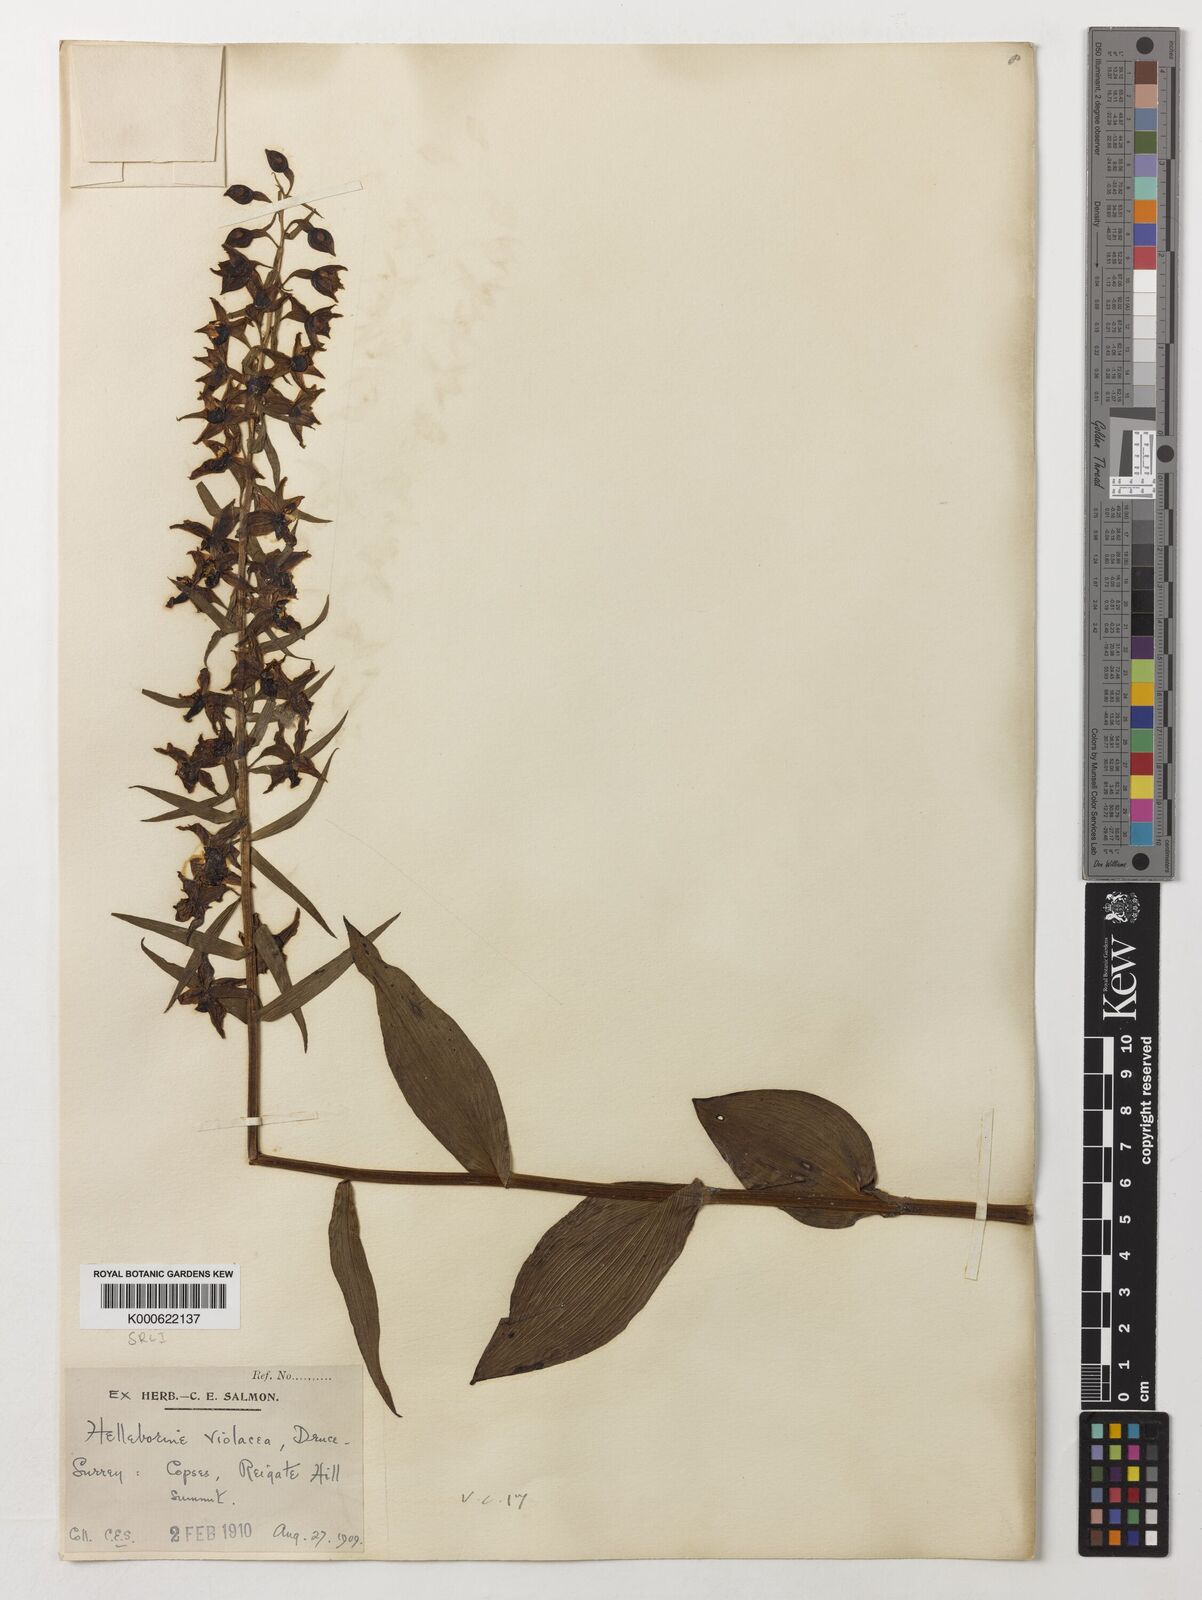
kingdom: Plantae
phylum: Tracheophyta
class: Liliopsida
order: Asparagales
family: Orchidaceae
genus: Epipactis
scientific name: Epipactis purpurata
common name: Violet helleborine
